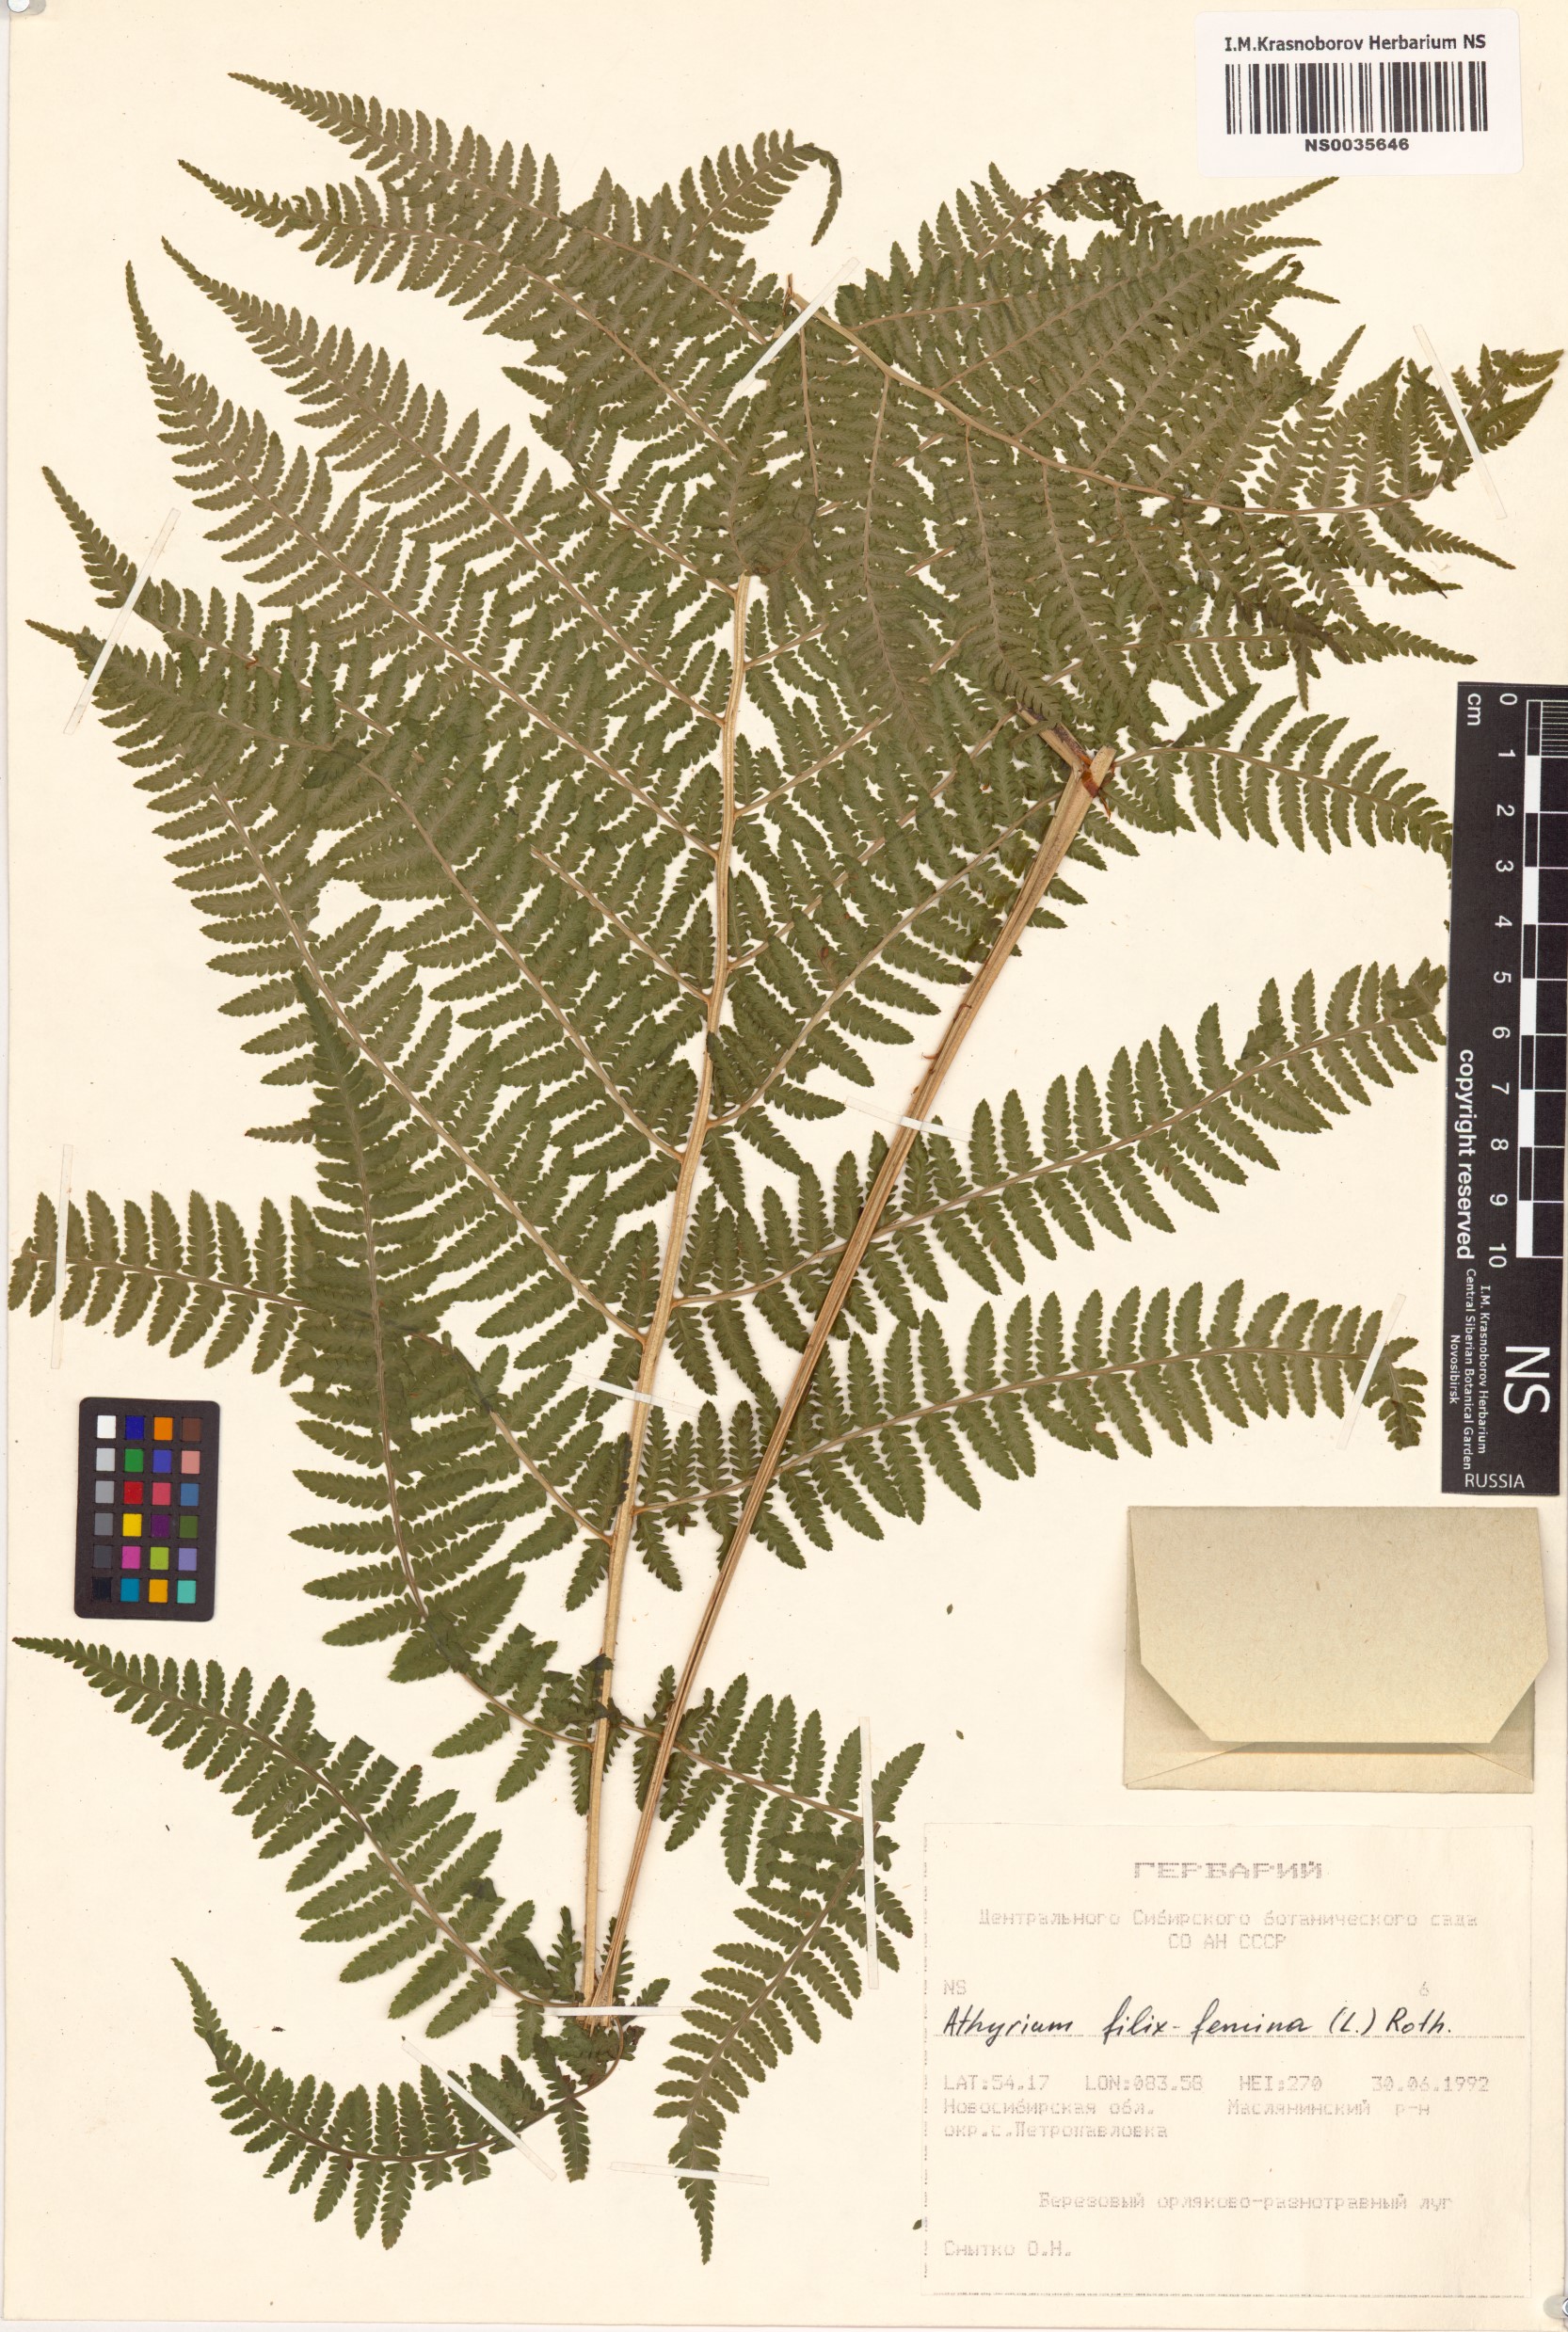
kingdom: Plantae
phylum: Tracheophyta
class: Polypodiopsida
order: Polypodiales
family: Athyriaceae
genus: Athyrium
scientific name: Athyrium filix-femina
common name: Lady fern
